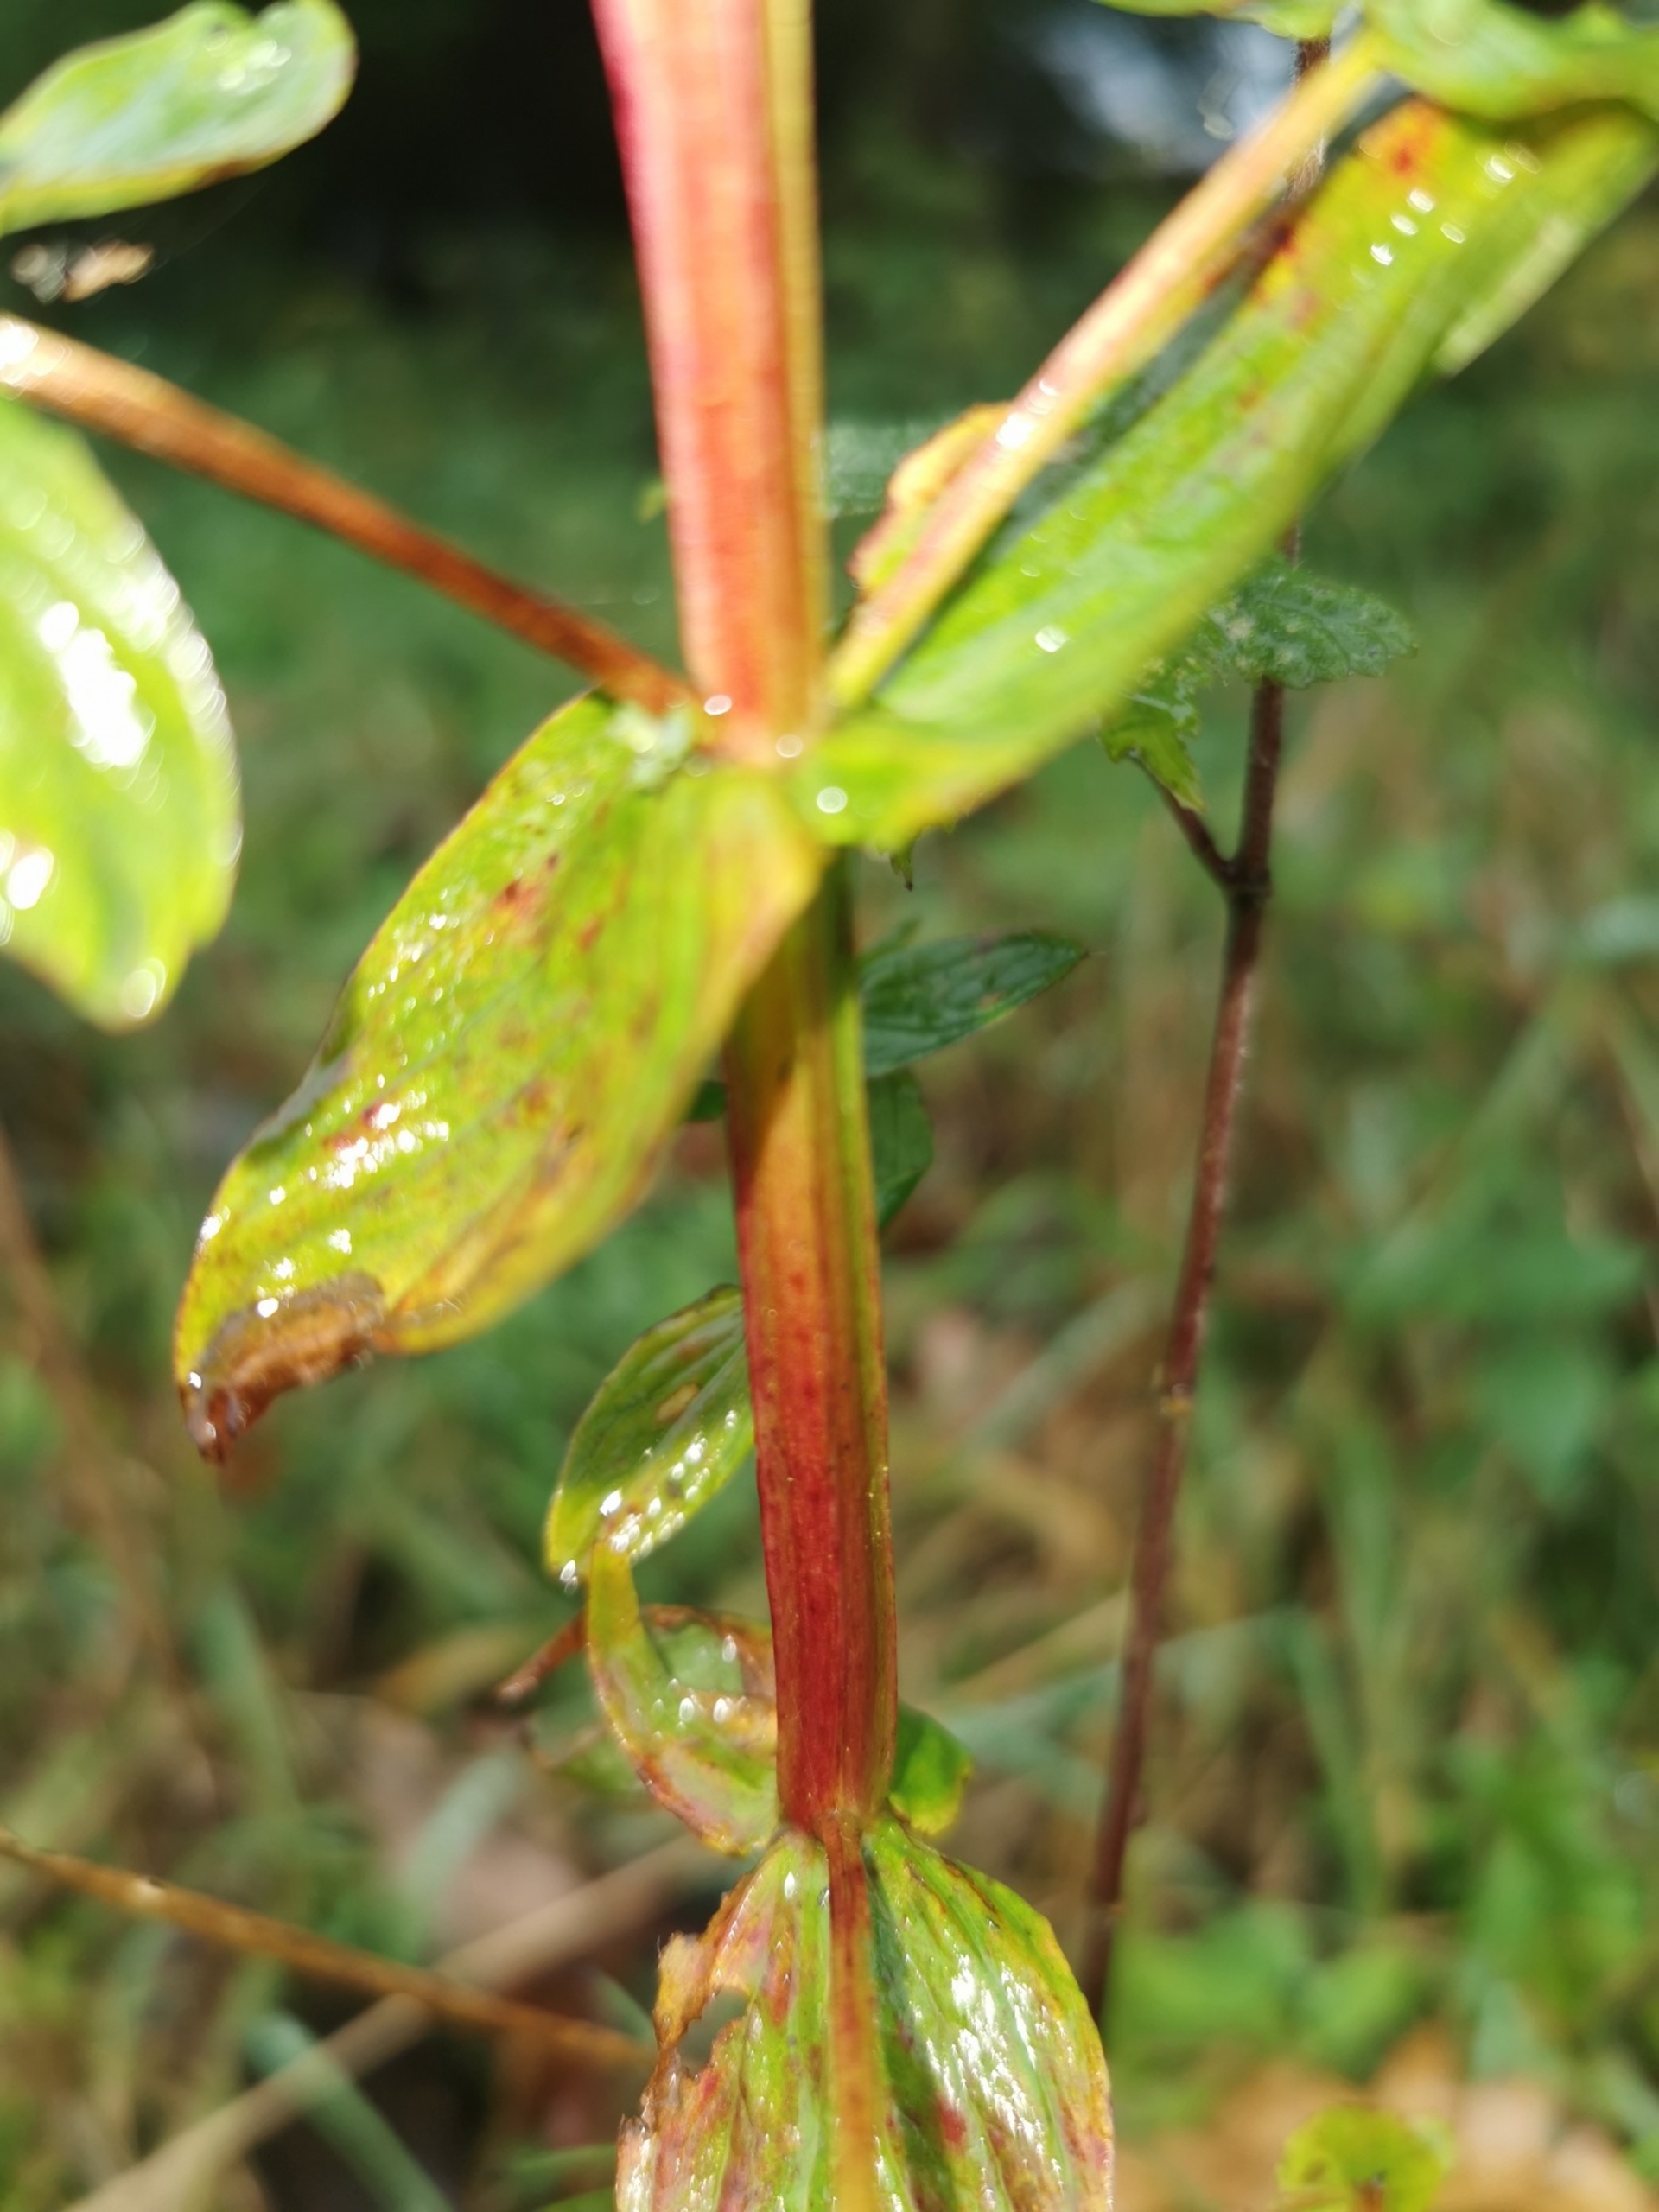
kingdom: Plantae
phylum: Tracheophyta
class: Magnoliopsida
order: Malpighiales
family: Hypericaceae
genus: Hypericum
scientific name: Hypericum tetrapterum
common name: Vinget perikon
